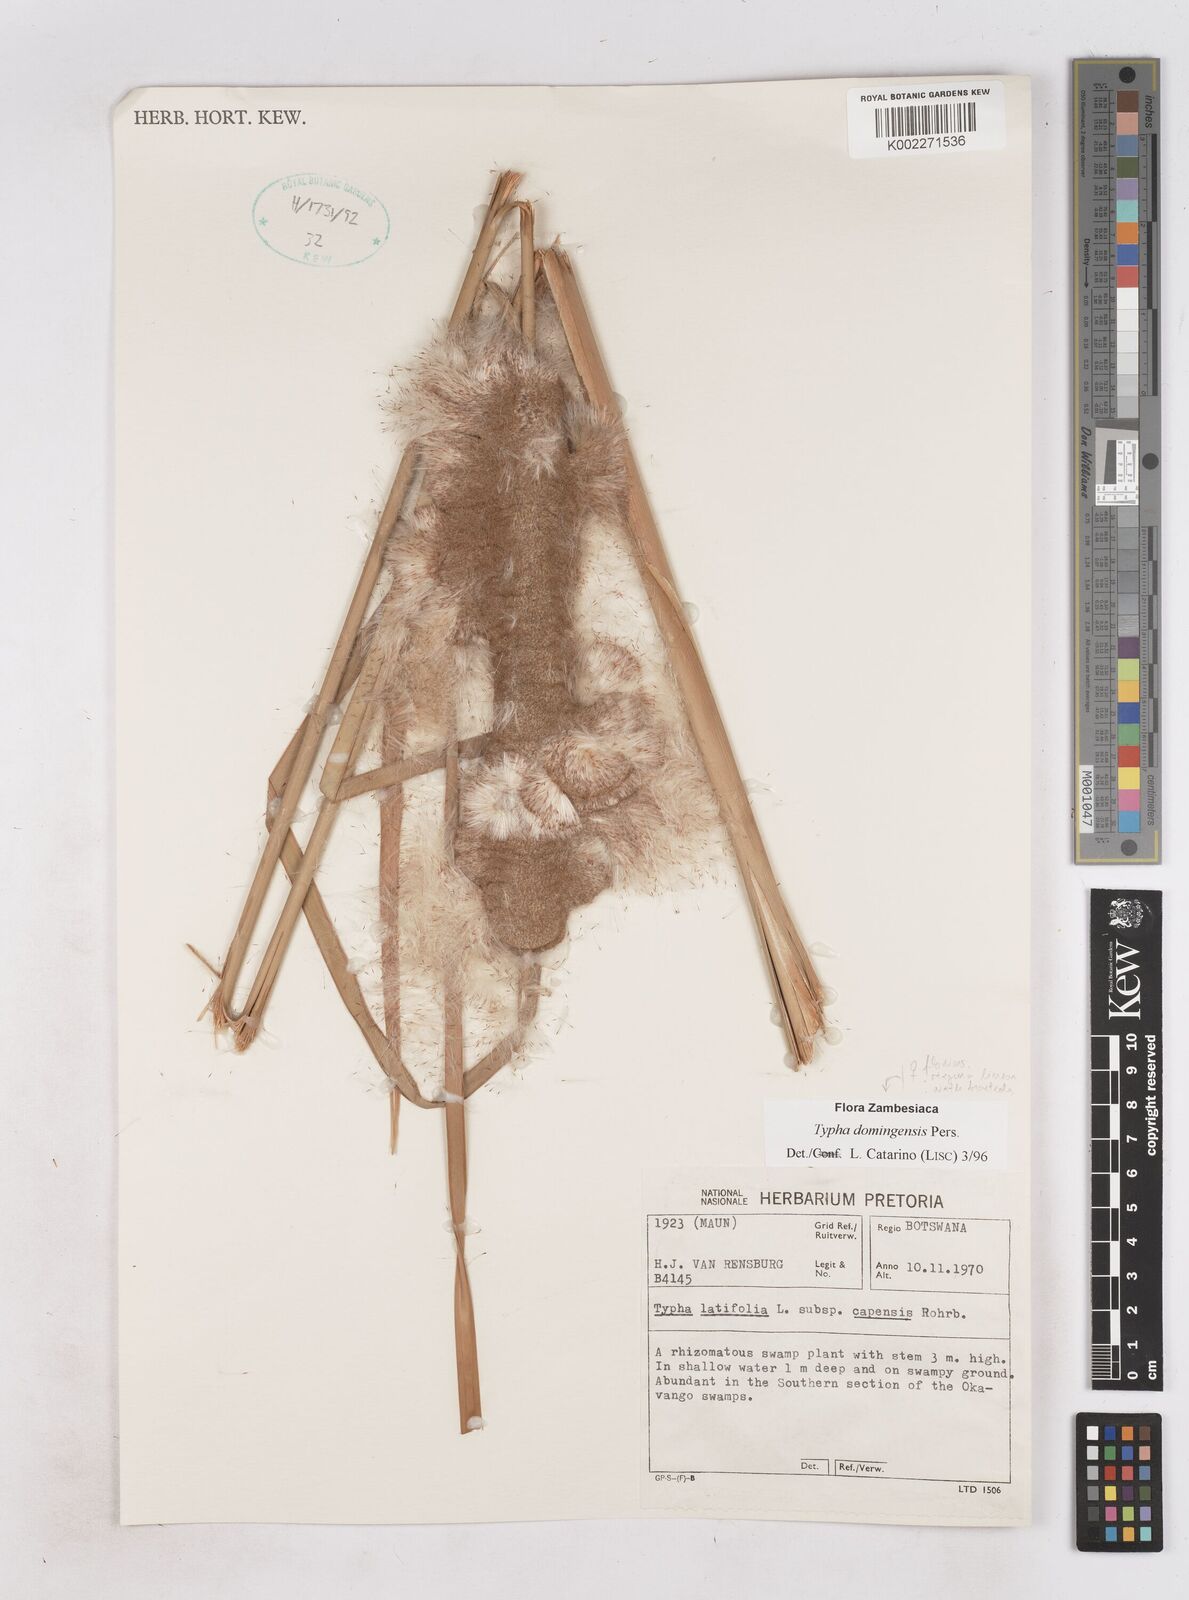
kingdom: Plantae
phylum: Tracheophyta
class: Liliopsida
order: Poales
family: Typhaceae
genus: Typha
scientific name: Typha domingensis
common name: Southern cattail
